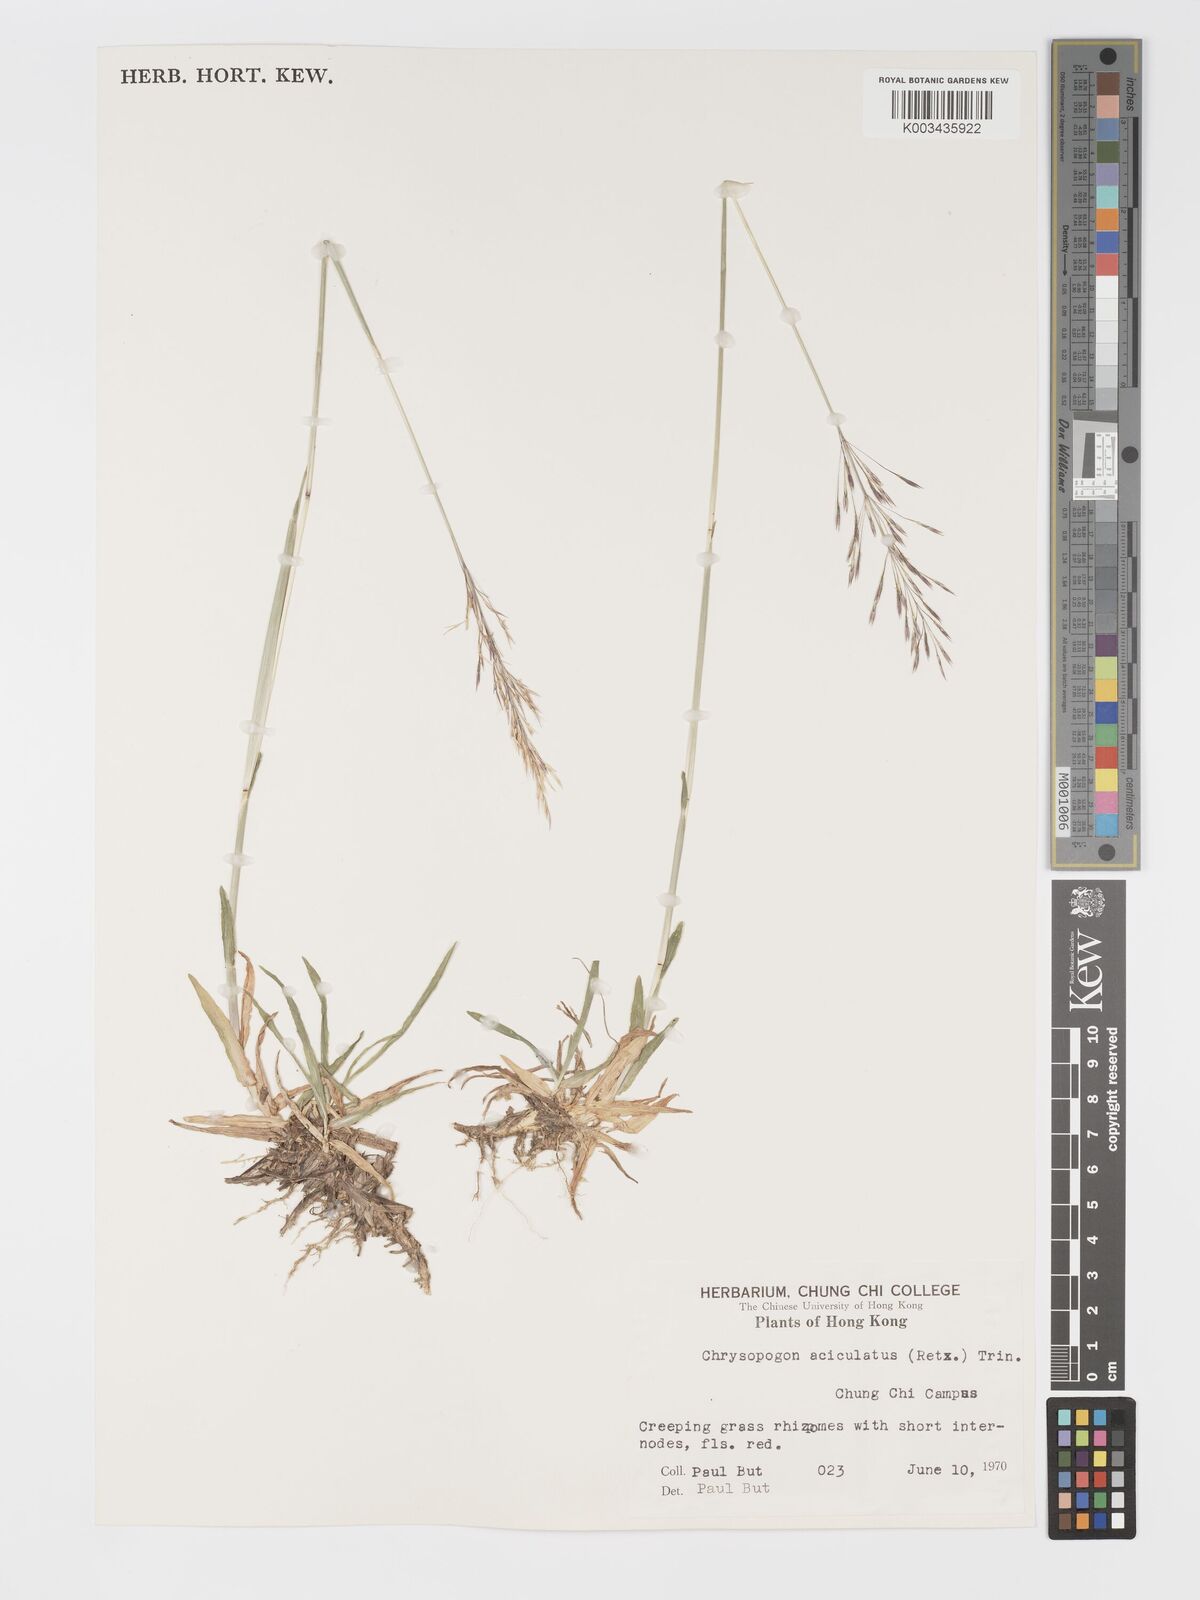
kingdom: Plantae
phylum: Tracheophyta
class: Liliopsida
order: Poales
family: Poaceae
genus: Chrysopogon
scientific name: Chrysopogon aciculatus
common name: Pilipiliula
